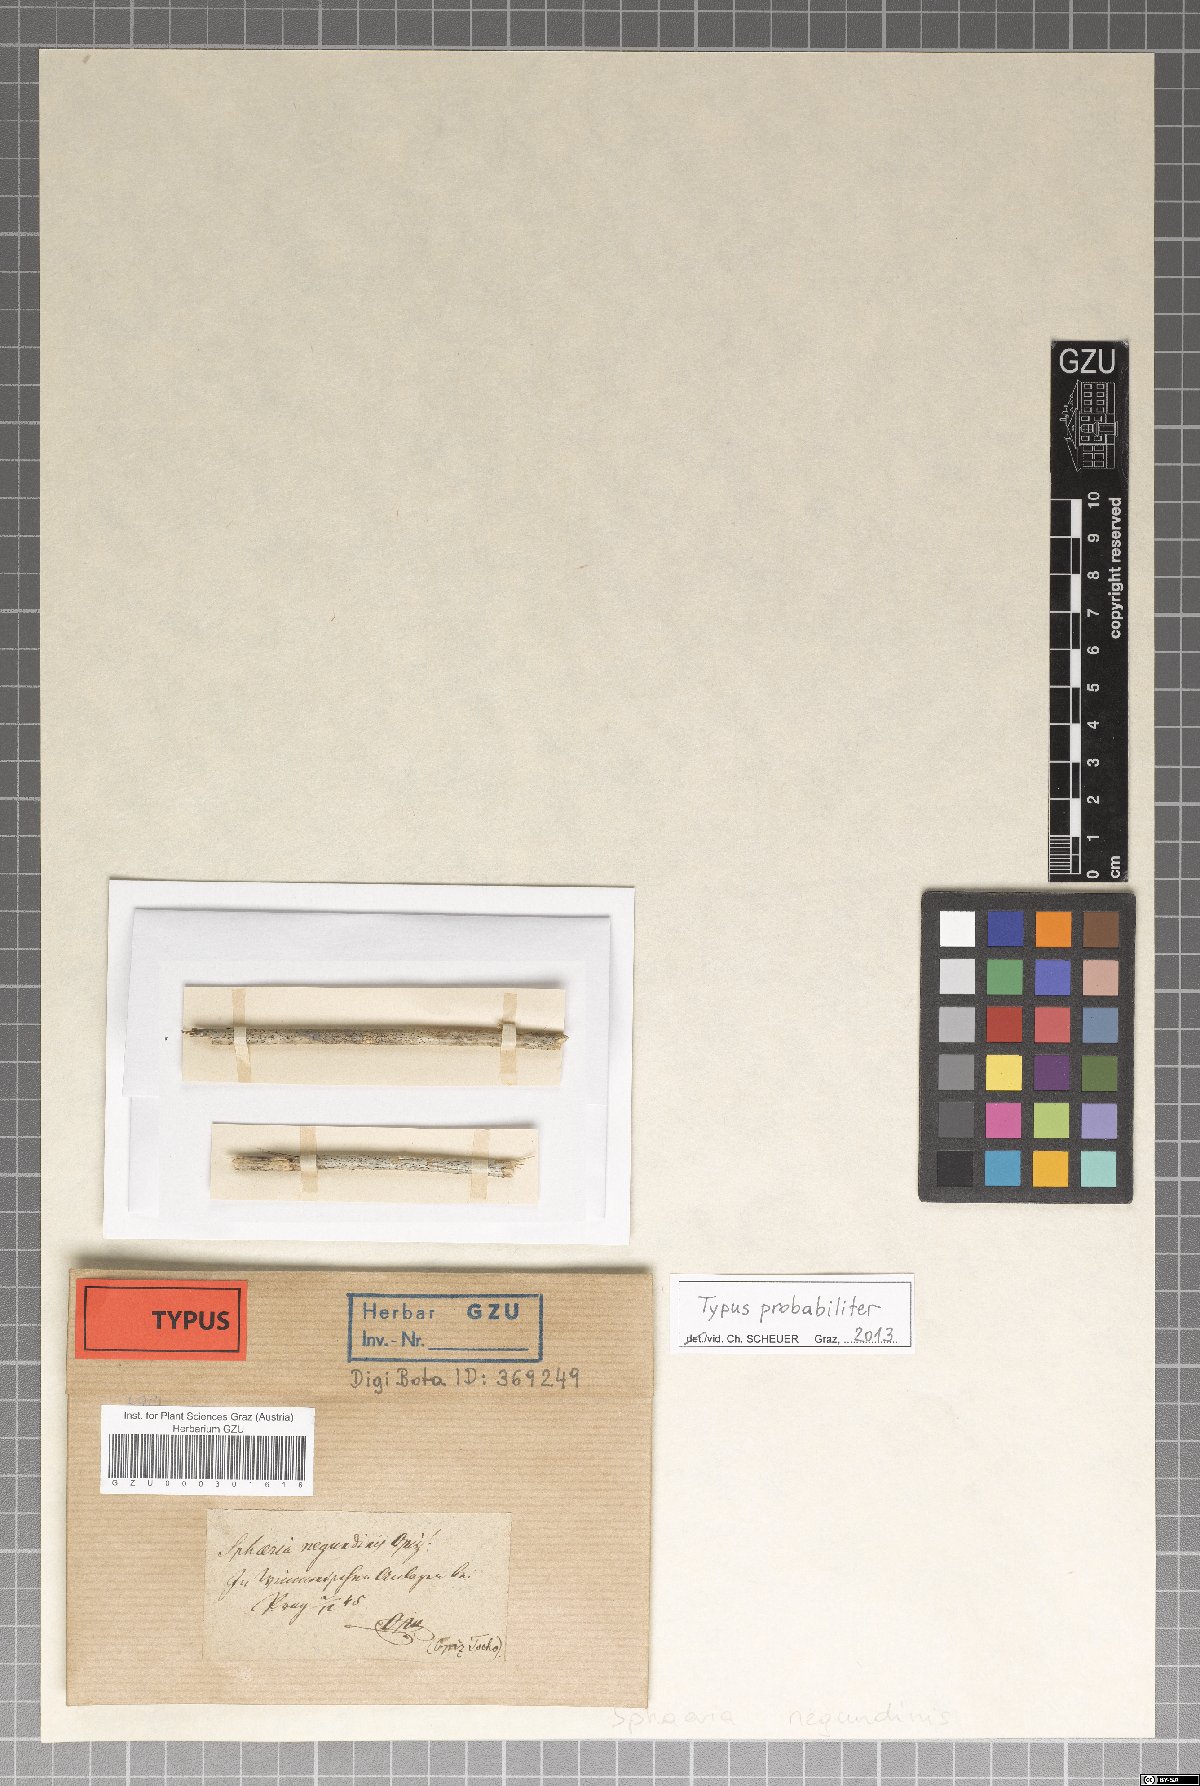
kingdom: Fungi
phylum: Ascomycota
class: Sordariomycetes
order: Xylariales
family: Xylariaceae
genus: Sphaeria
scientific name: Sphaeria
